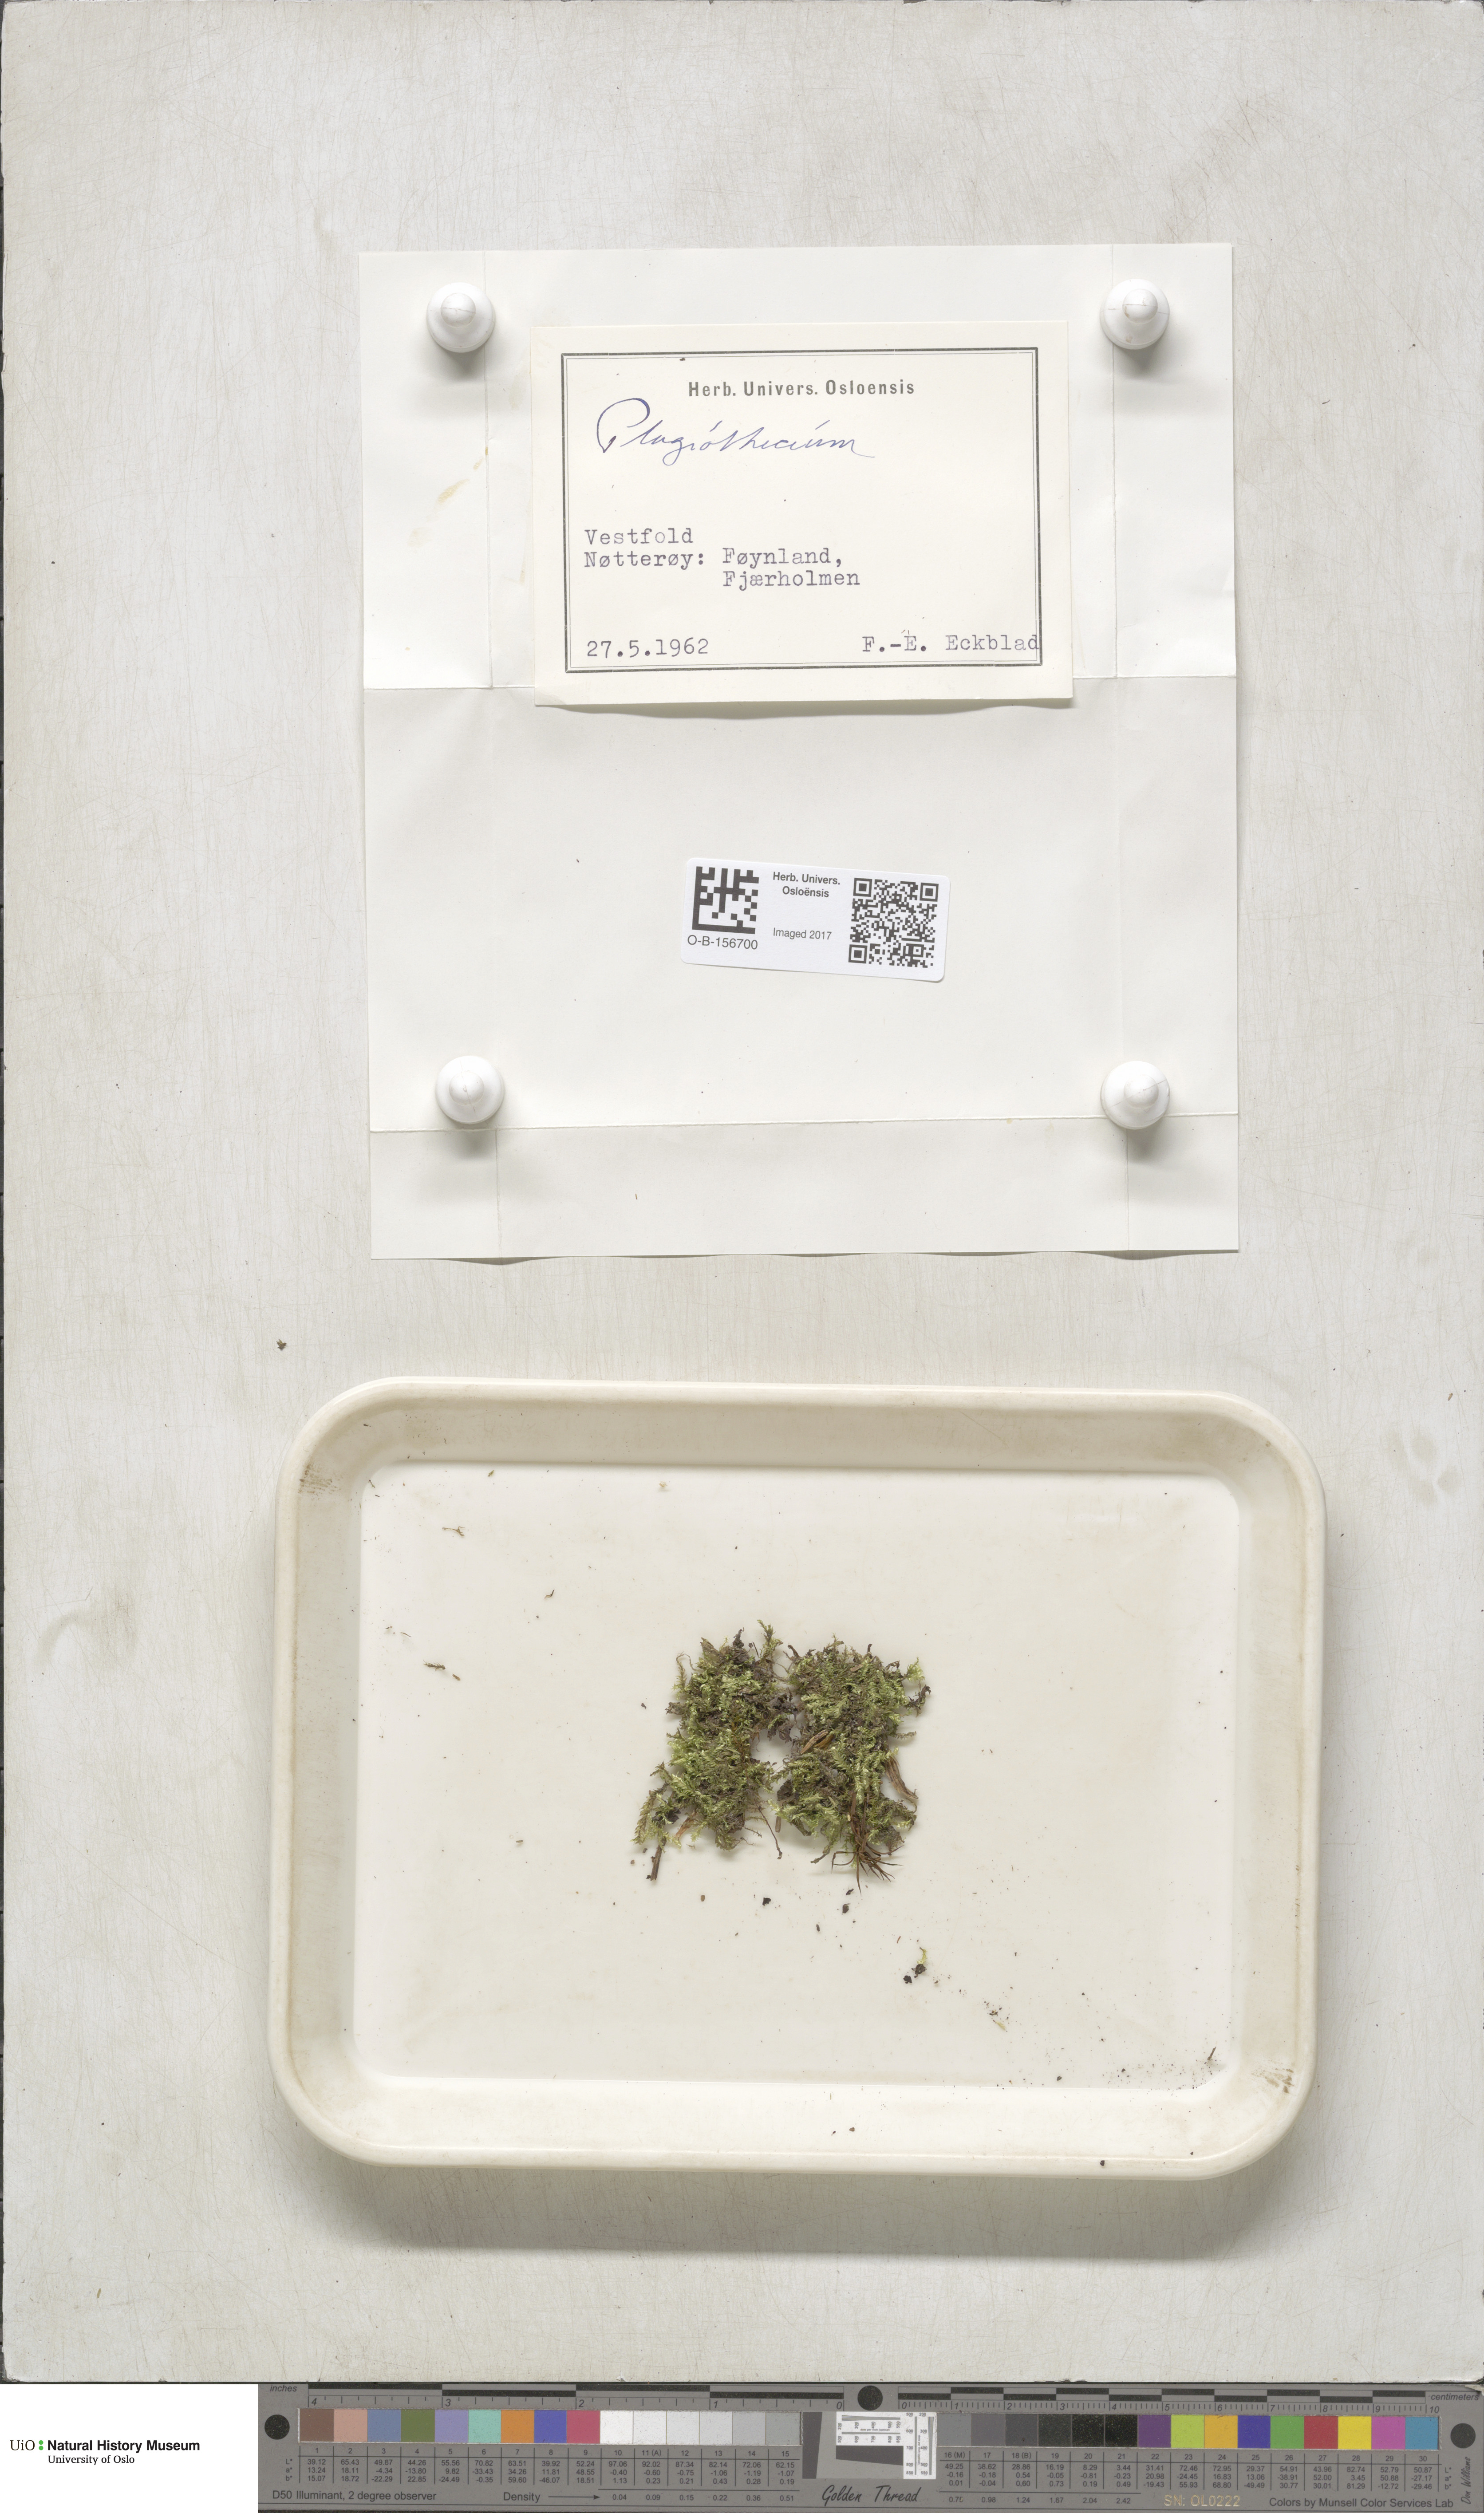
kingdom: Plantae
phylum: Bryophyta
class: Bryopsida
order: Hypnales
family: Plagiotheciaceae
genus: Plagiothecium
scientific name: Plagiothecium
